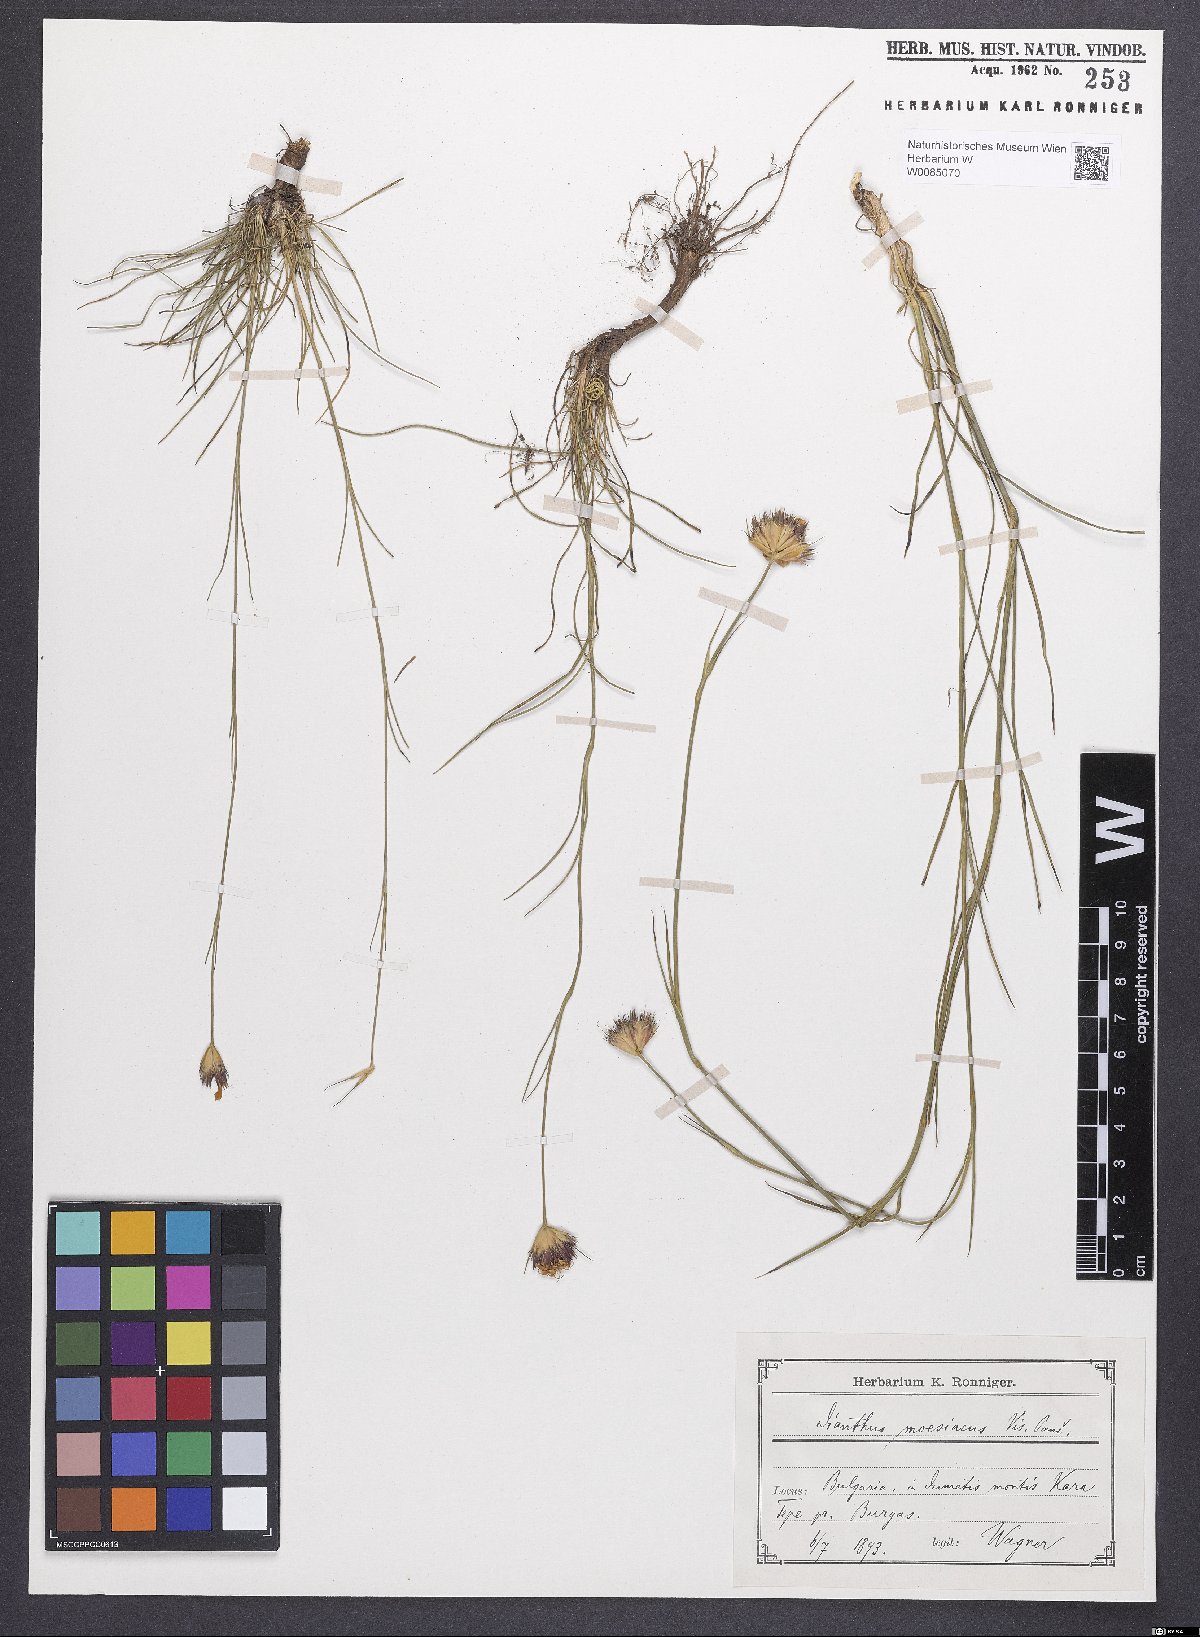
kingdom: Plantae
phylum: Tracheophyta
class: Magnoliopsida
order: Caryophyllales
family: Caryophyllaceae
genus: Dianthus
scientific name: Dianthus moesiacus
